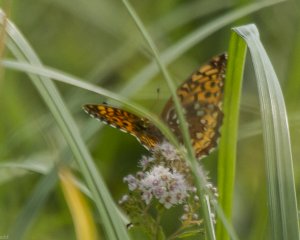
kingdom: Animalia
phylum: Arthropoda
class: Insecta
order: Lepidoptera
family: Nymphalidae
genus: Speyeria
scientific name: Speyeria cybele
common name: Great Spangled Fritillary
